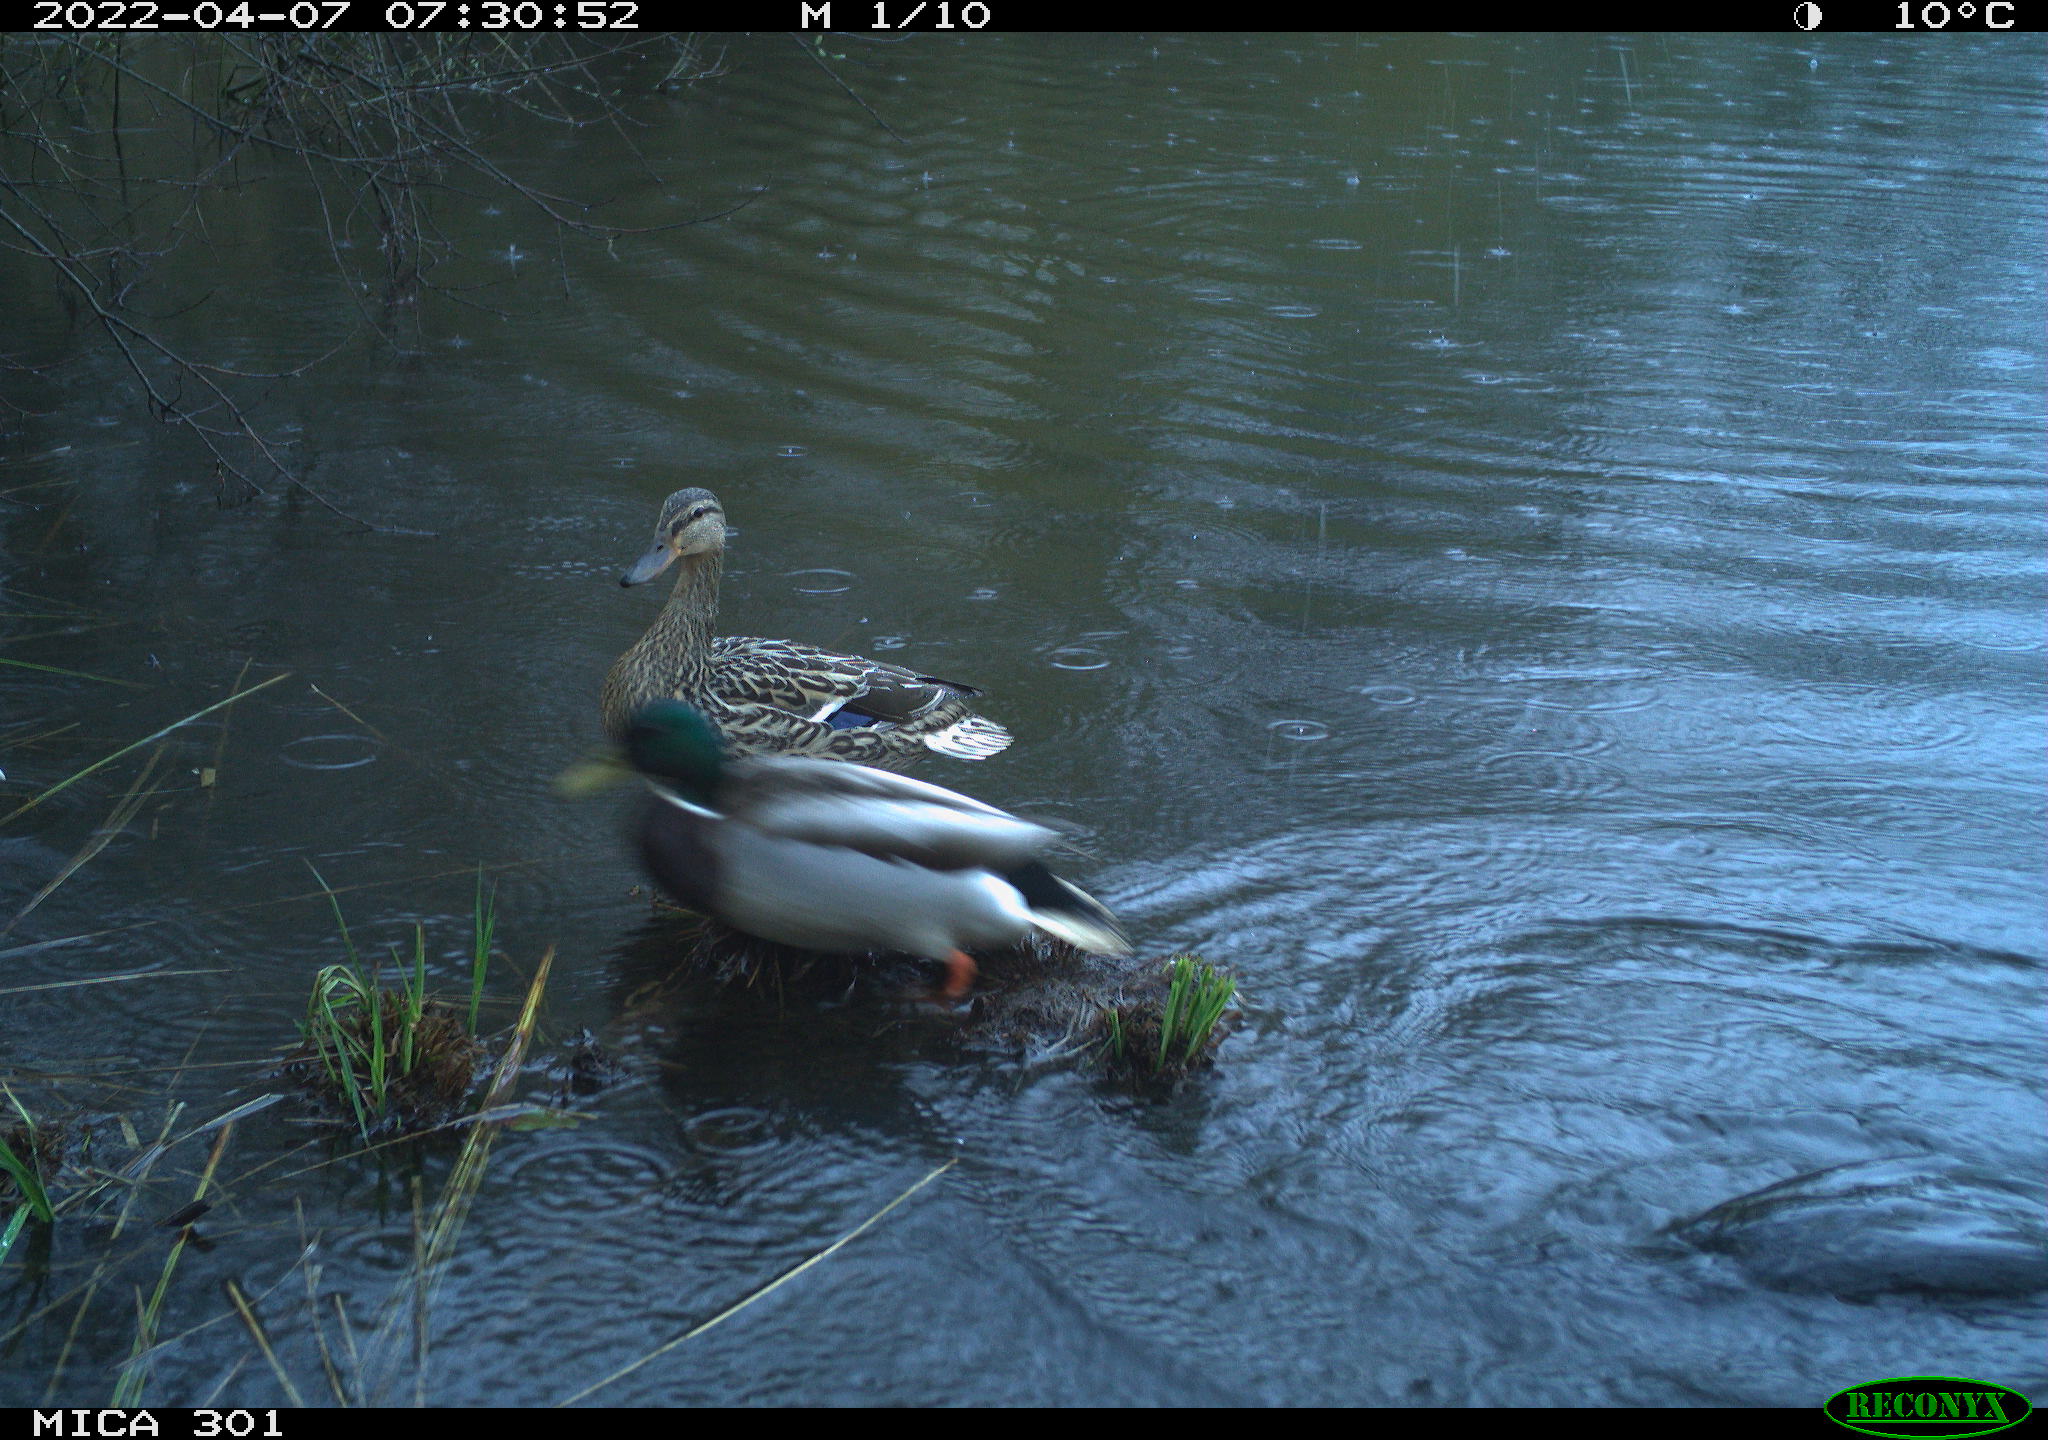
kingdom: Animalia
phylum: Chordata
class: Aves
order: Gruiformes
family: Rallidae
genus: Fulica
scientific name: Fulica atra
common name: Eurasian coot
